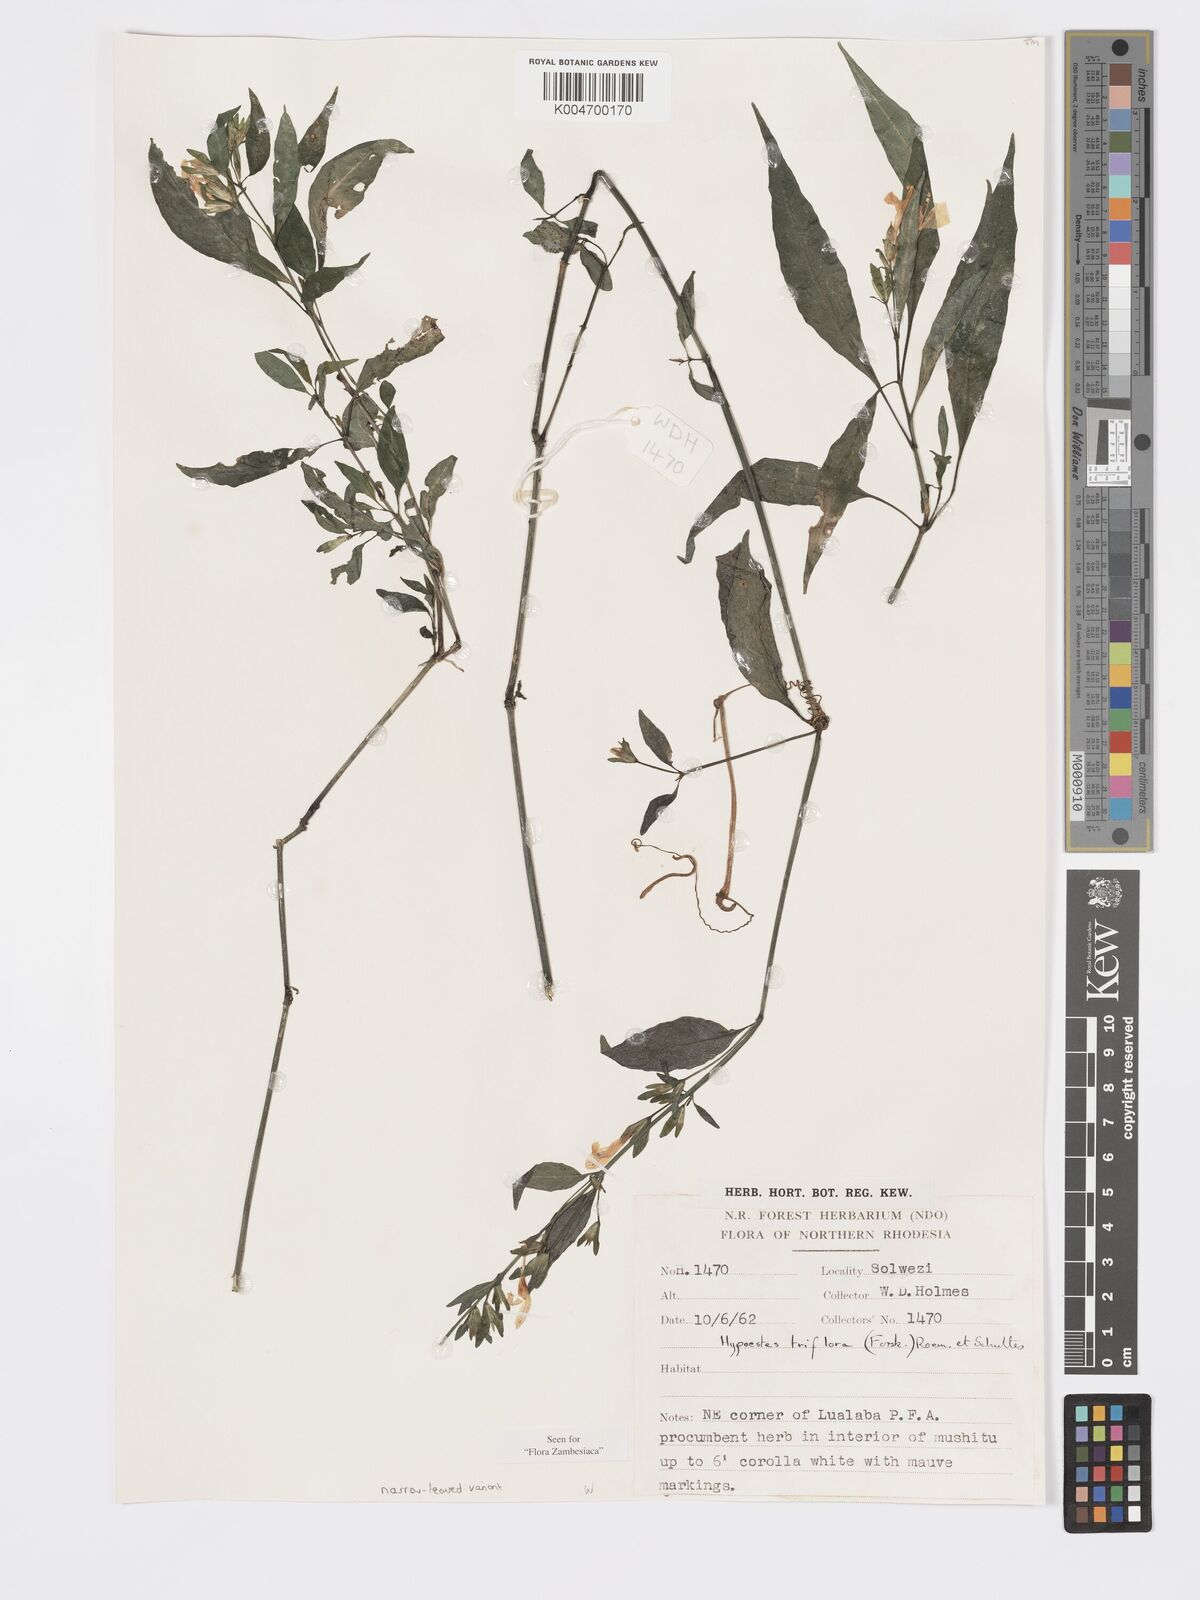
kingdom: Plantae
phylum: Tracheophyta
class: Magnoliopsida
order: Lamiales
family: Acanthaceae
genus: Hypoestes
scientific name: Hypoestes triflora
